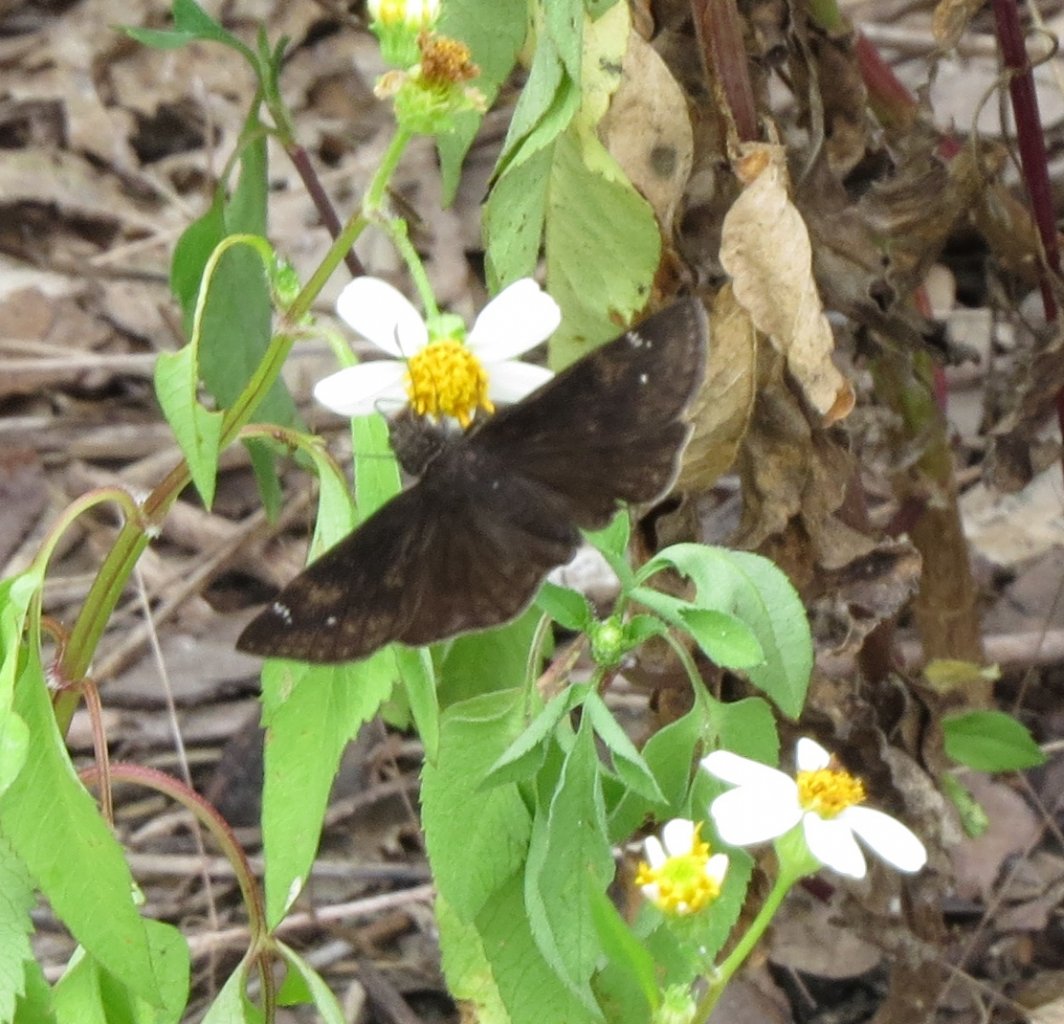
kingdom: Animalia
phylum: Arthropoda
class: Insecta
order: Lepidoptera
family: Hesperiidae
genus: Erynnis
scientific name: Erynnis zarucco
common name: Zarucco Duskywing
